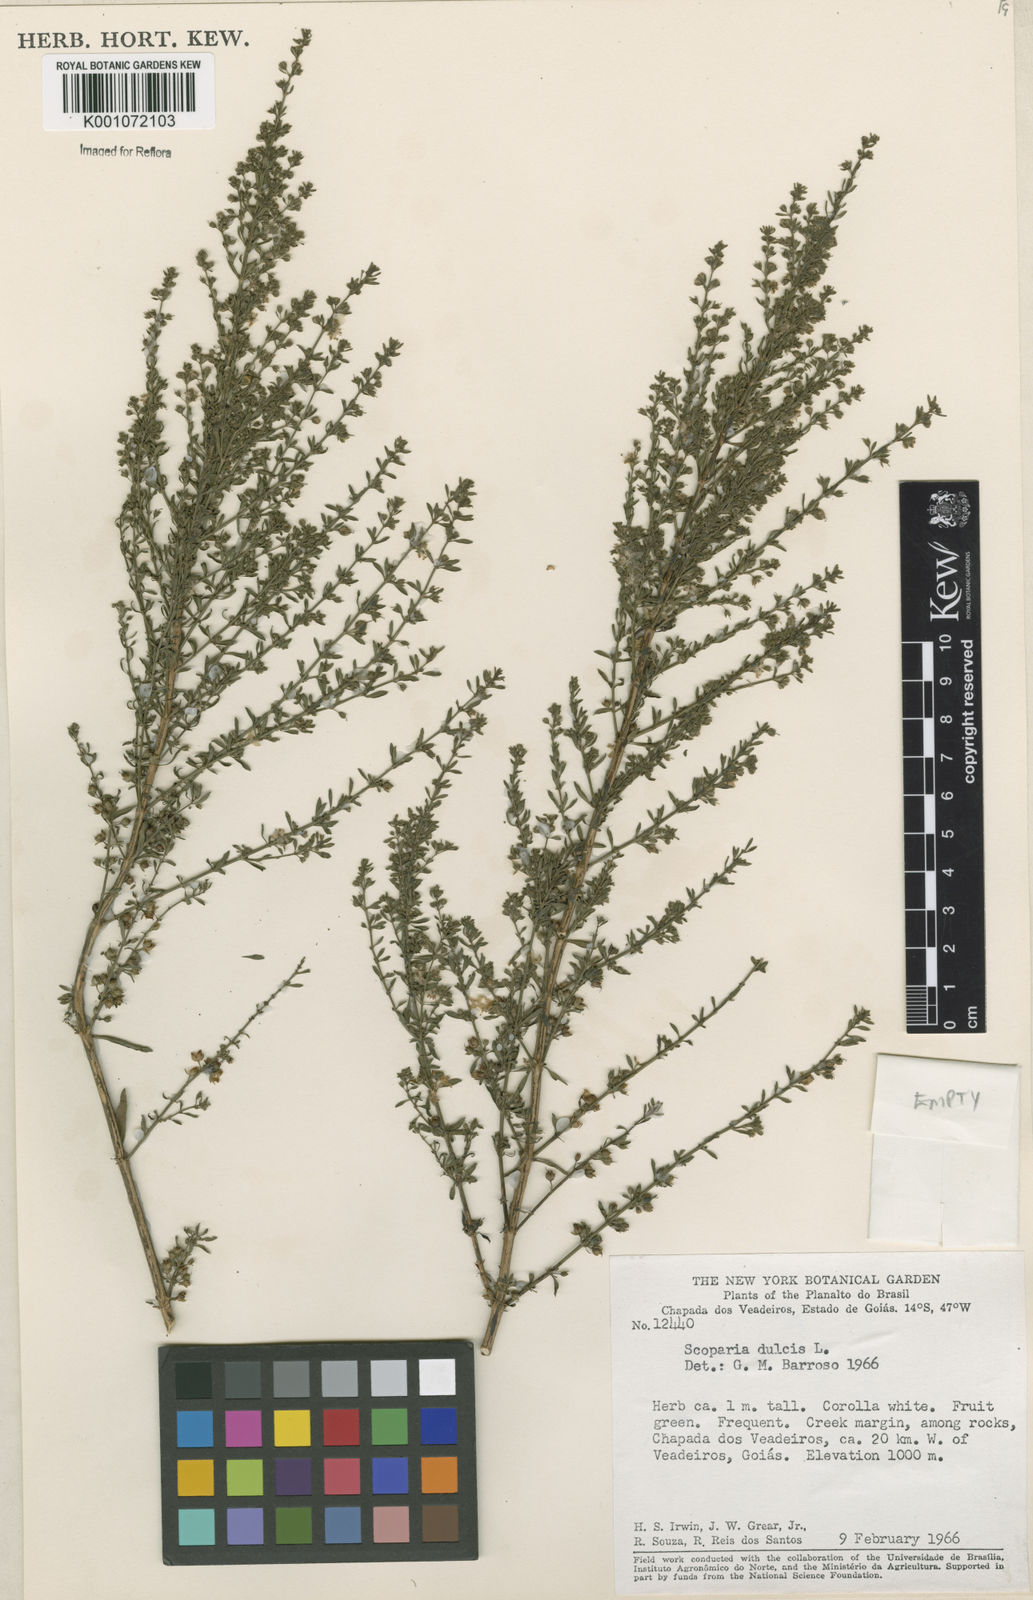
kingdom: Plantae
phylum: Tracheophyta
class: Magnoliopsida
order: Lamiales
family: Plantaginaceae
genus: Scoparia
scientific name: Scoparia dulcis
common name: Scoparia-weed
